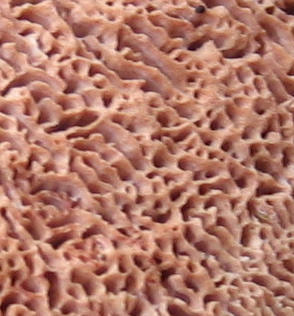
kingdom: Fungi
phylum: Basidiomycota
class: Agaricomycetes
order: Polyporales
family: Phanerochaetaceae
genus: Hapalopilus
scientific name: Hapalopilus rutilans
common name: rødlig okkerporesvamp
